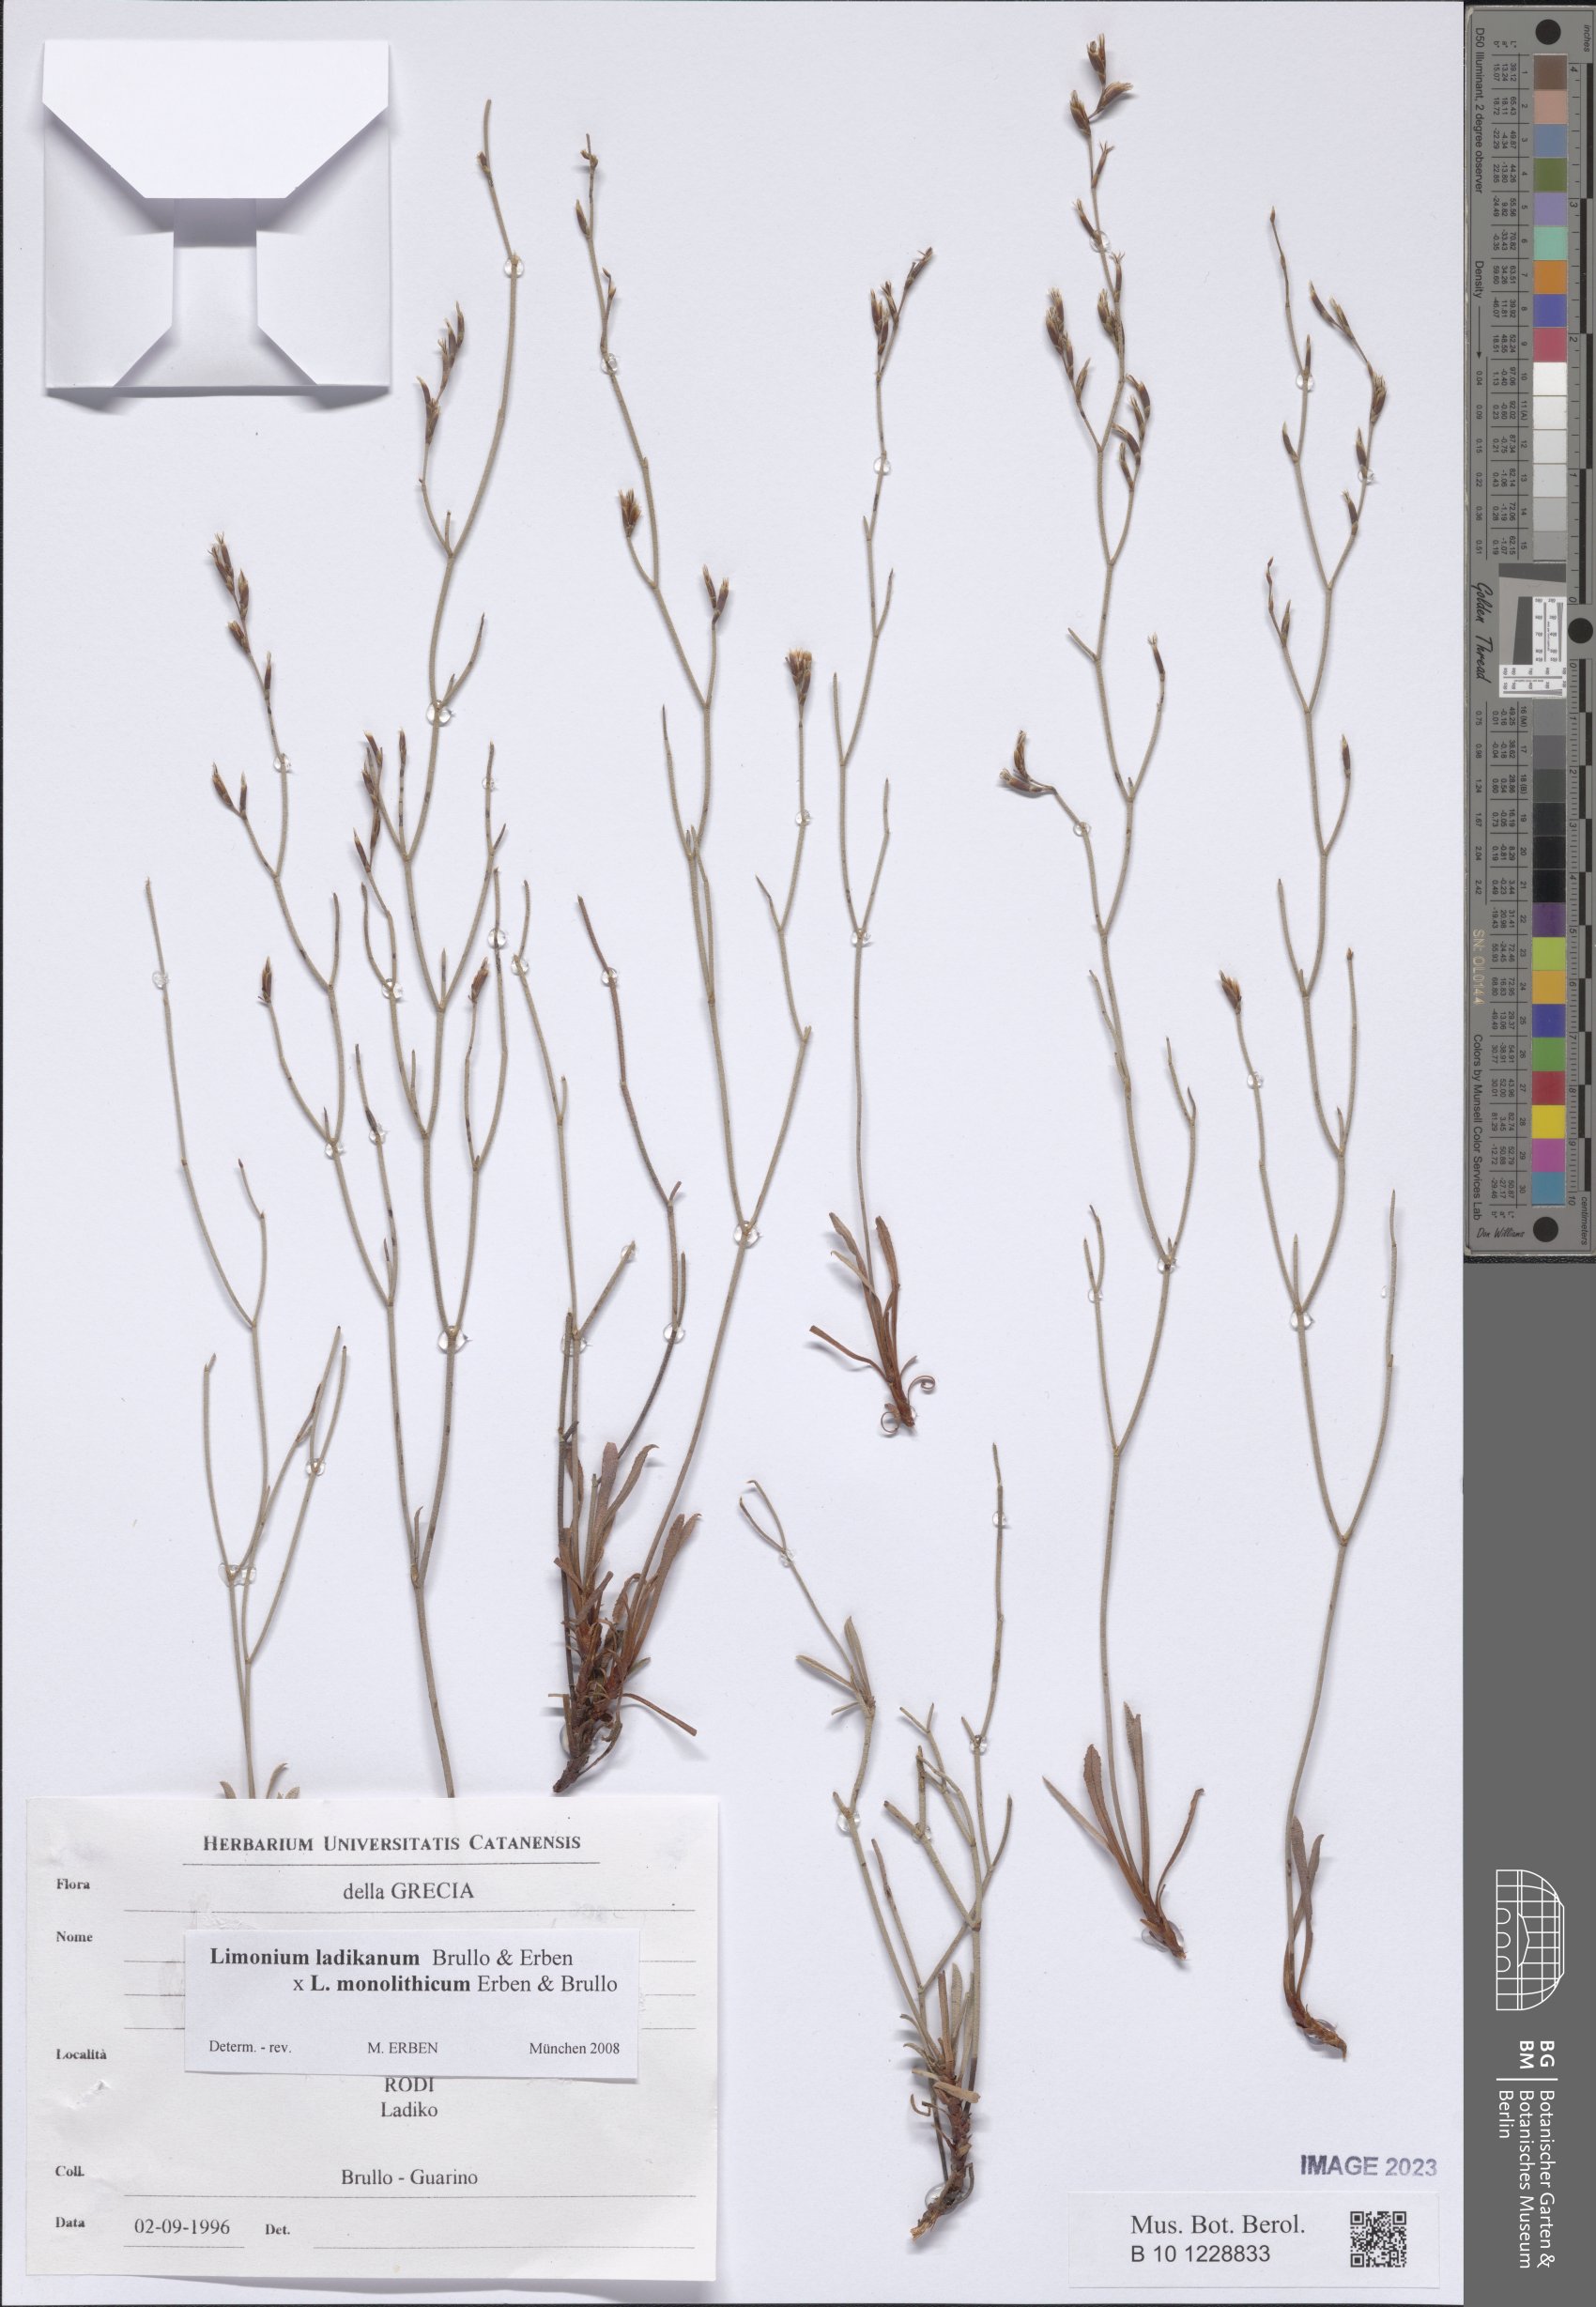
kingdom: Plantae
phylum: Tracheophyta
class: Magnoliopsida
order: Caryophyllales
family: Plumbaginaceae
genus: Limonium
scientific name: Limonium
